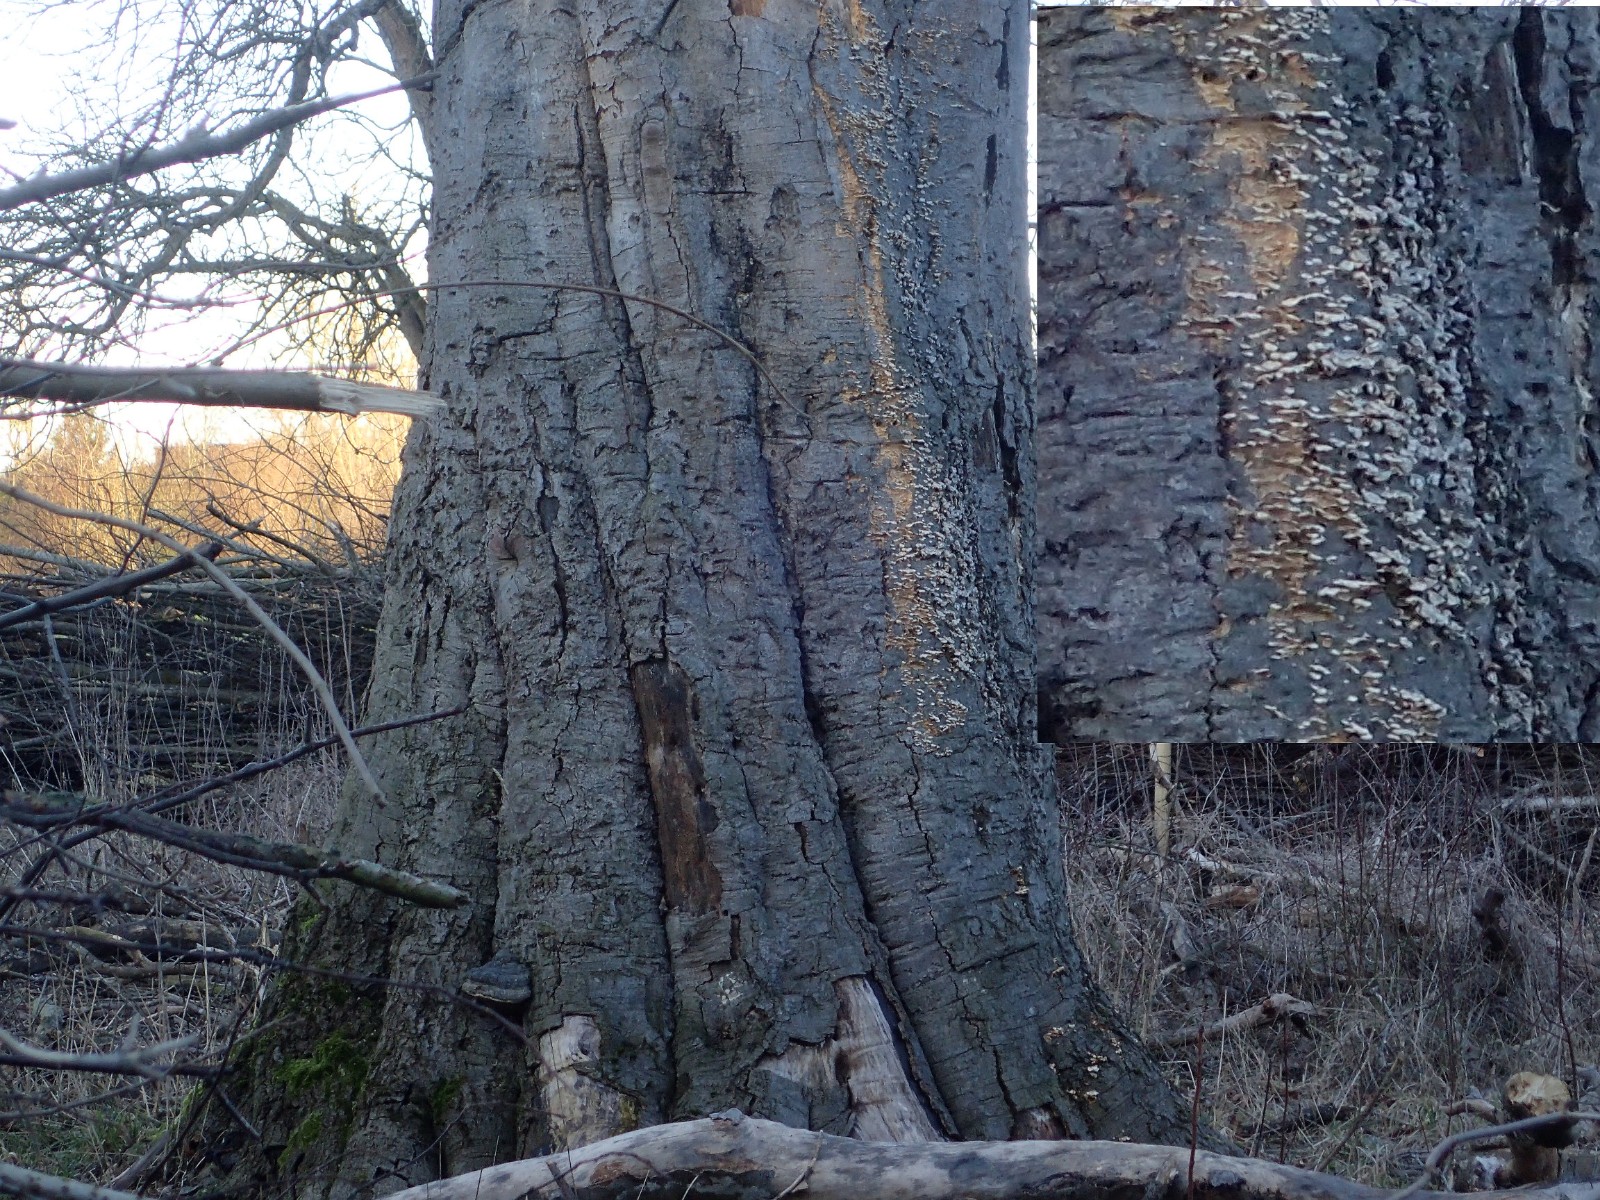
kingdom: Fungi
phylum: Basidiomycota
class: Agaricomycetes
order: Hymenochaetales
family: Hymenochaetaceae
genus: Mensularia
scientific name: Mensularia nodulosa
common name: bøge-spejlporesvamp
